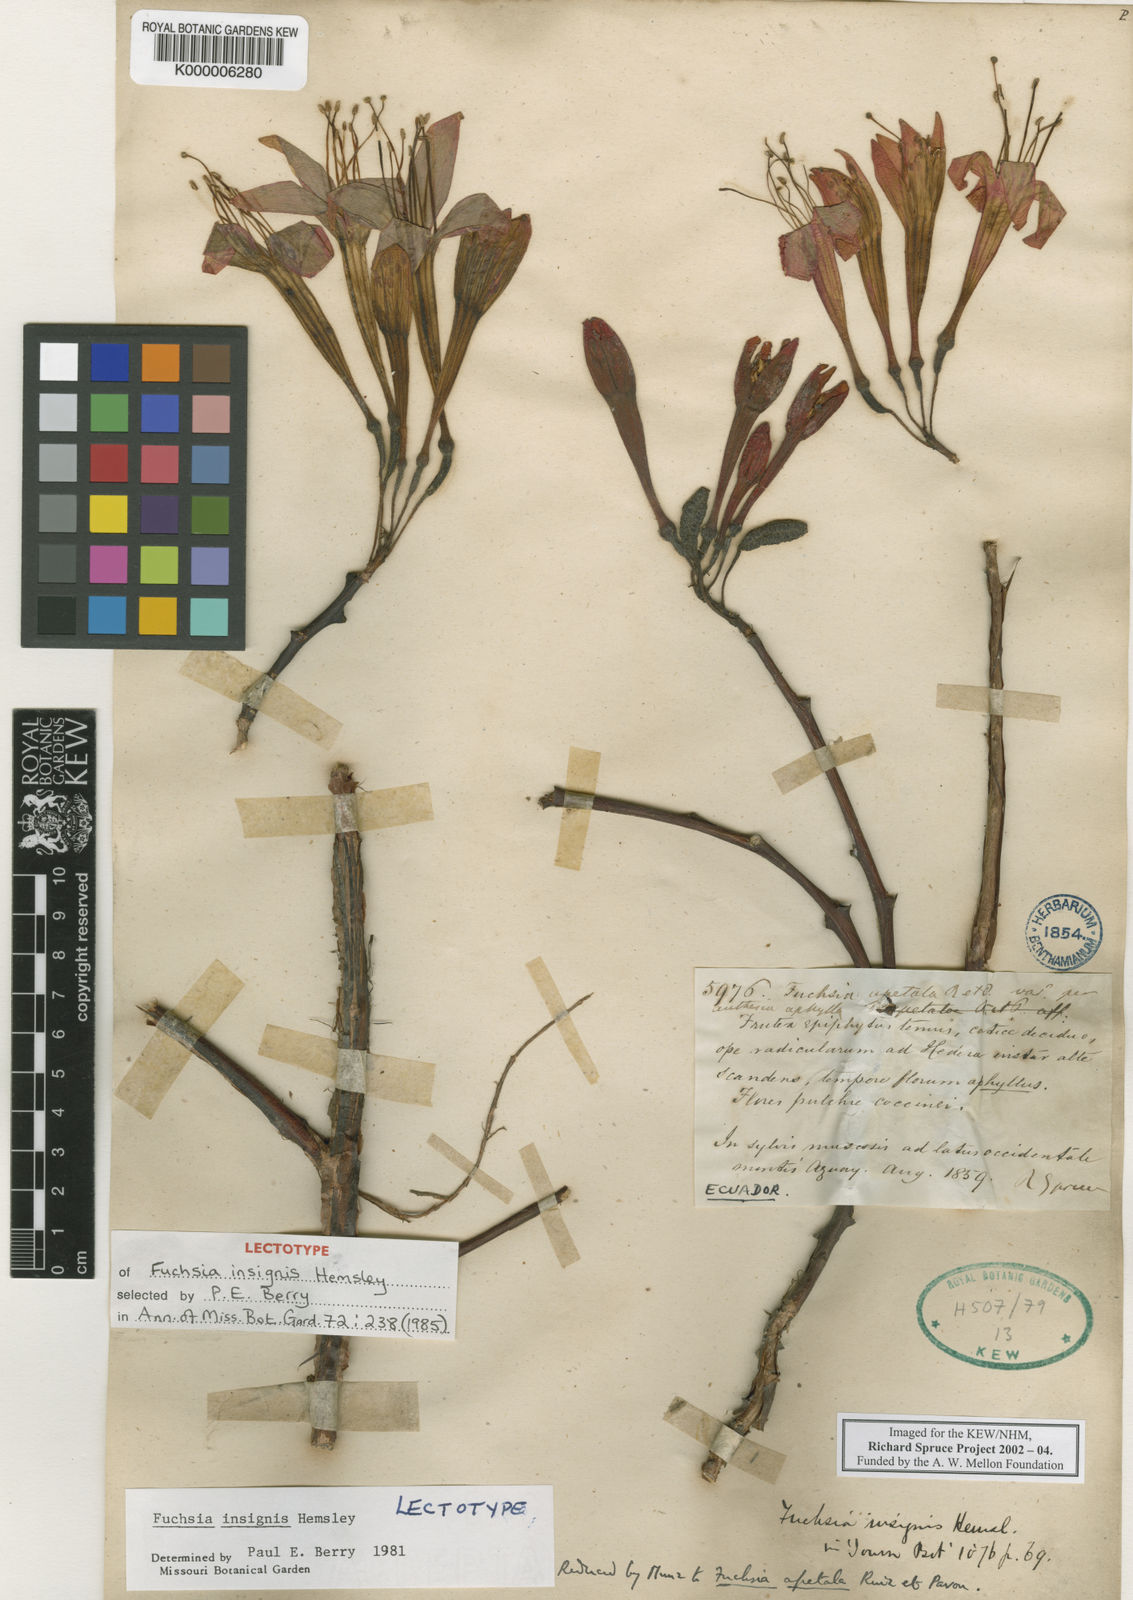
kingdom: Plantae
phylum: Tracheophyta
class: Magnoliopsida
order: Myrtales
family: Onagraceae
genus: Fuchsia
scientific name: Fuchsia insignis
